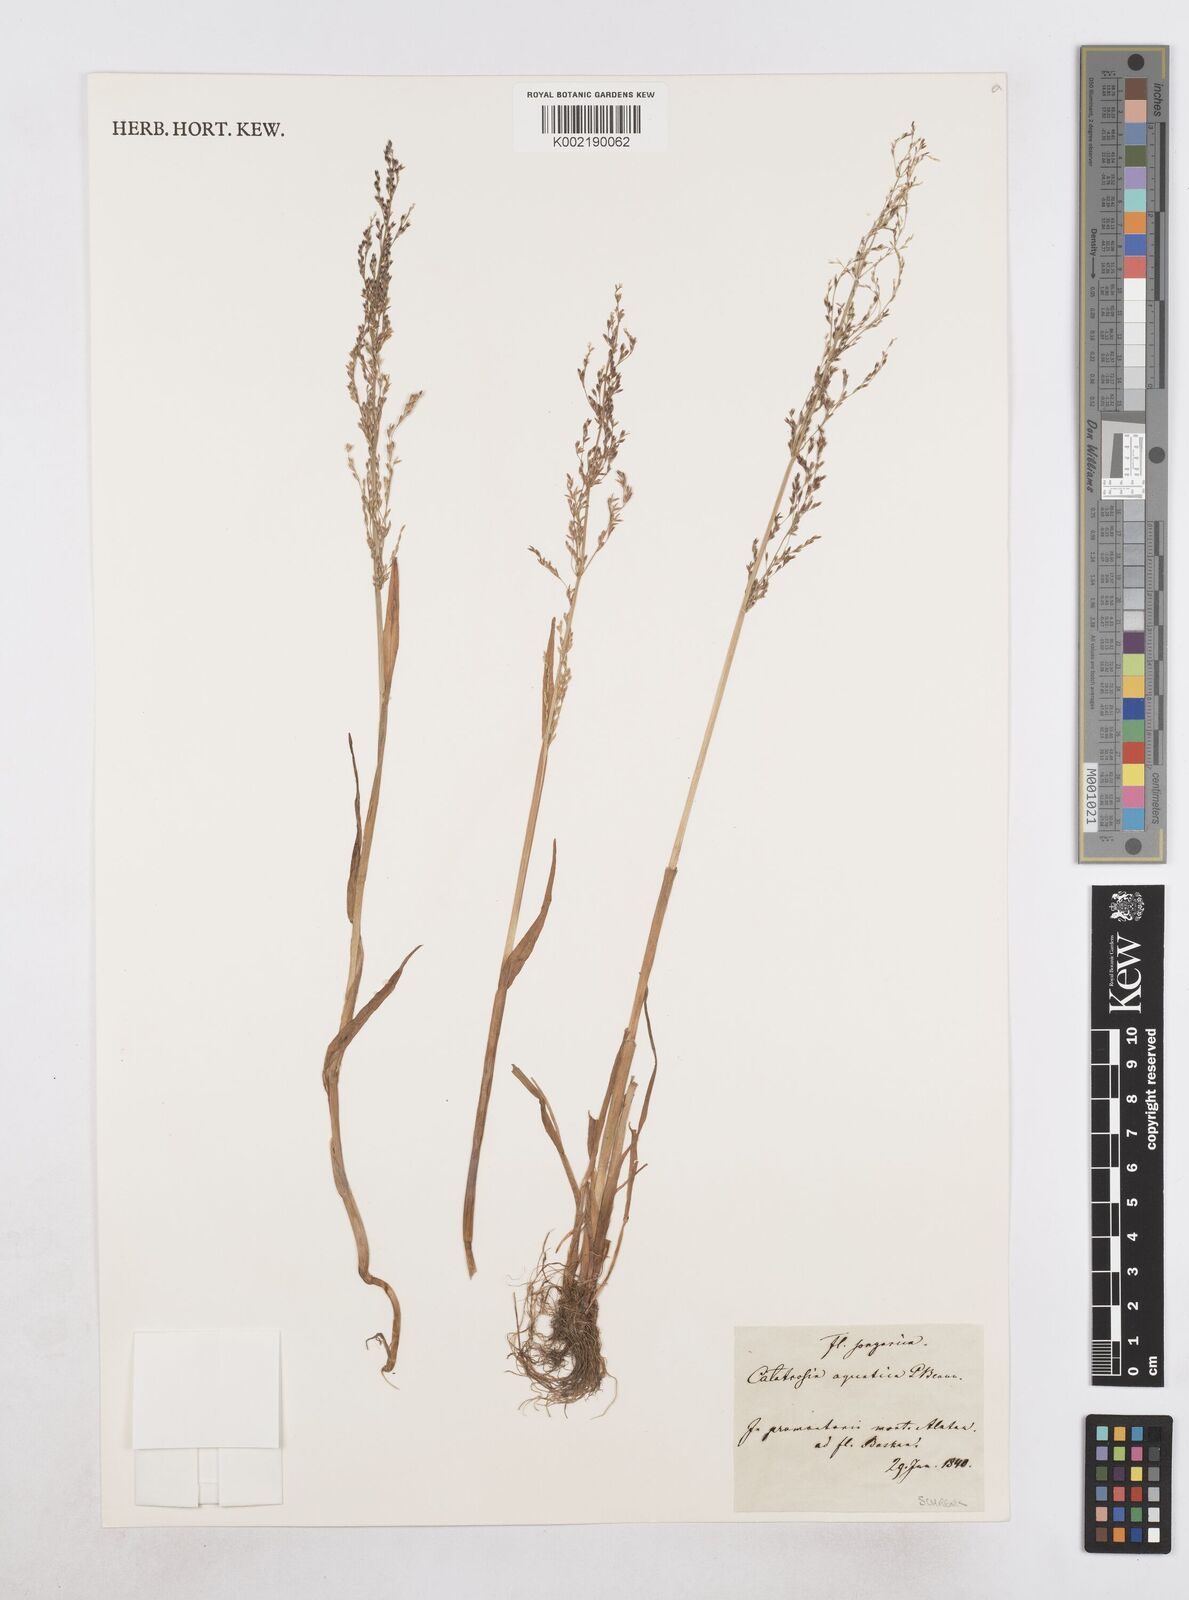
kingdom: Plantae
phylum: Tracheophyta
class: Liliopsida
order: Poales
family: Poaceae
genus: Catabrosa
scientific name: Catabrosa aquatica
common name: Whorl-grass
